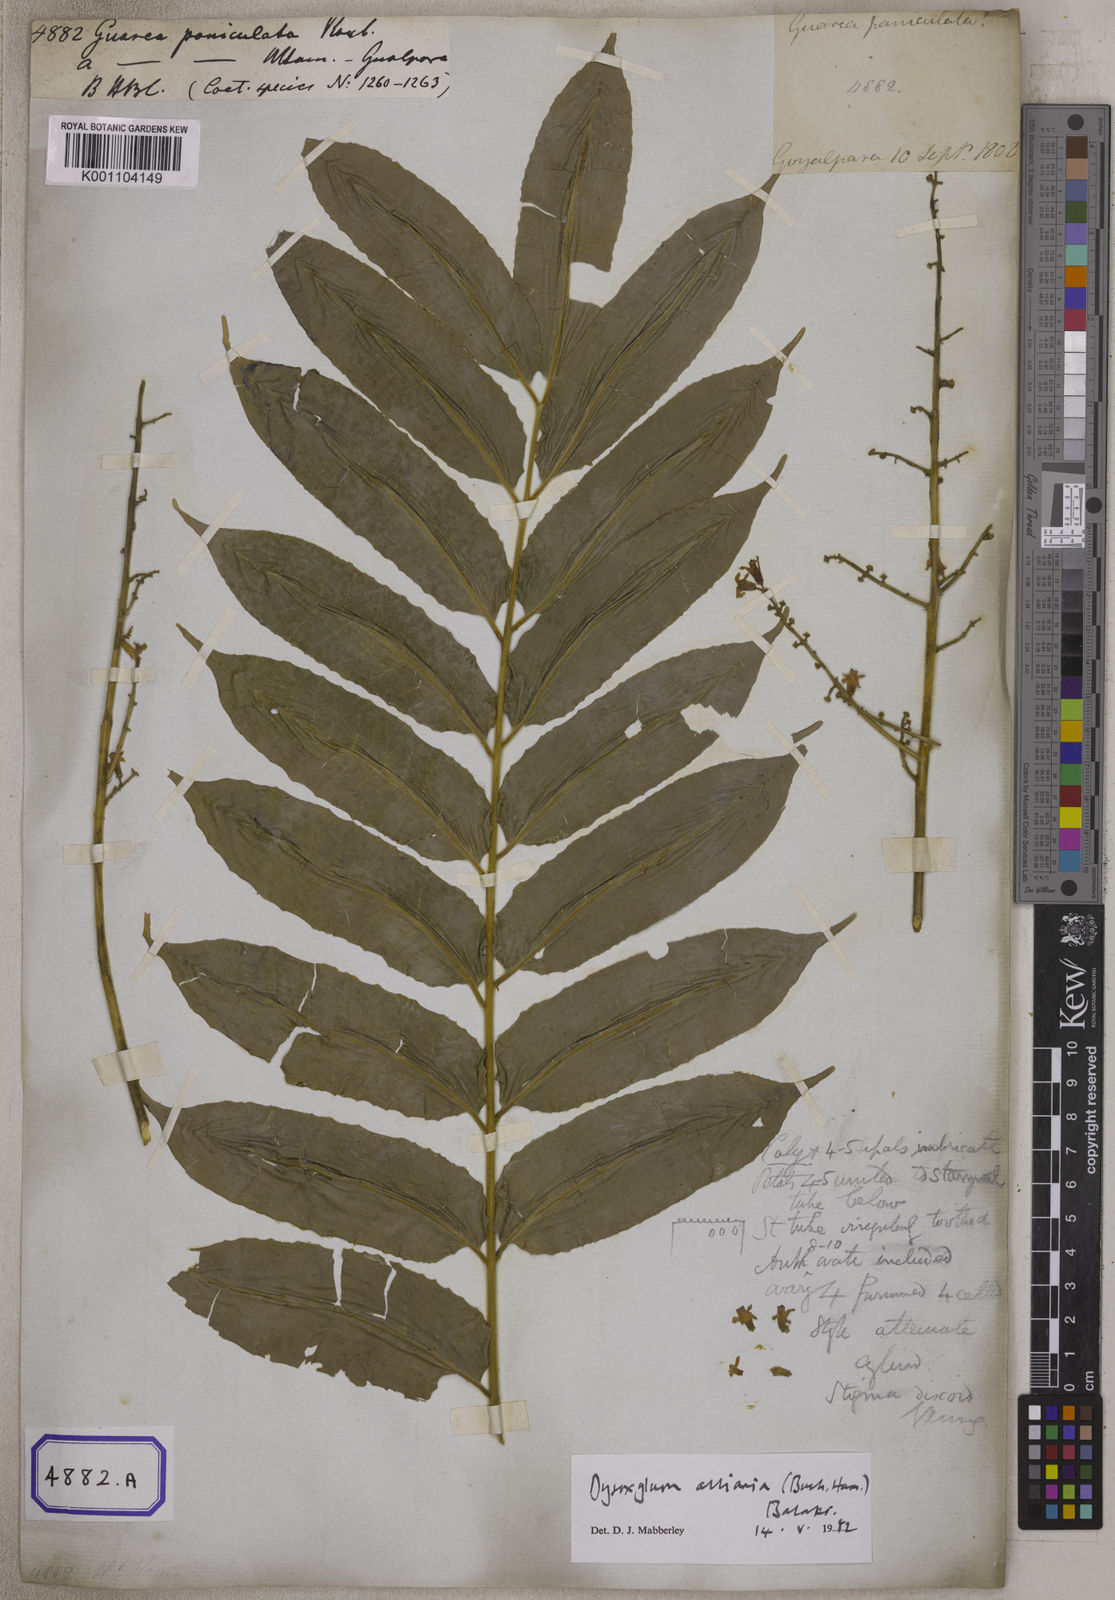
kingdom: Plantae
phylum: Tracheophyta
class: Magnoliopsida
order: Sapindales
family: Meliaceae
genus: Guarea
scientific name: Guarea
